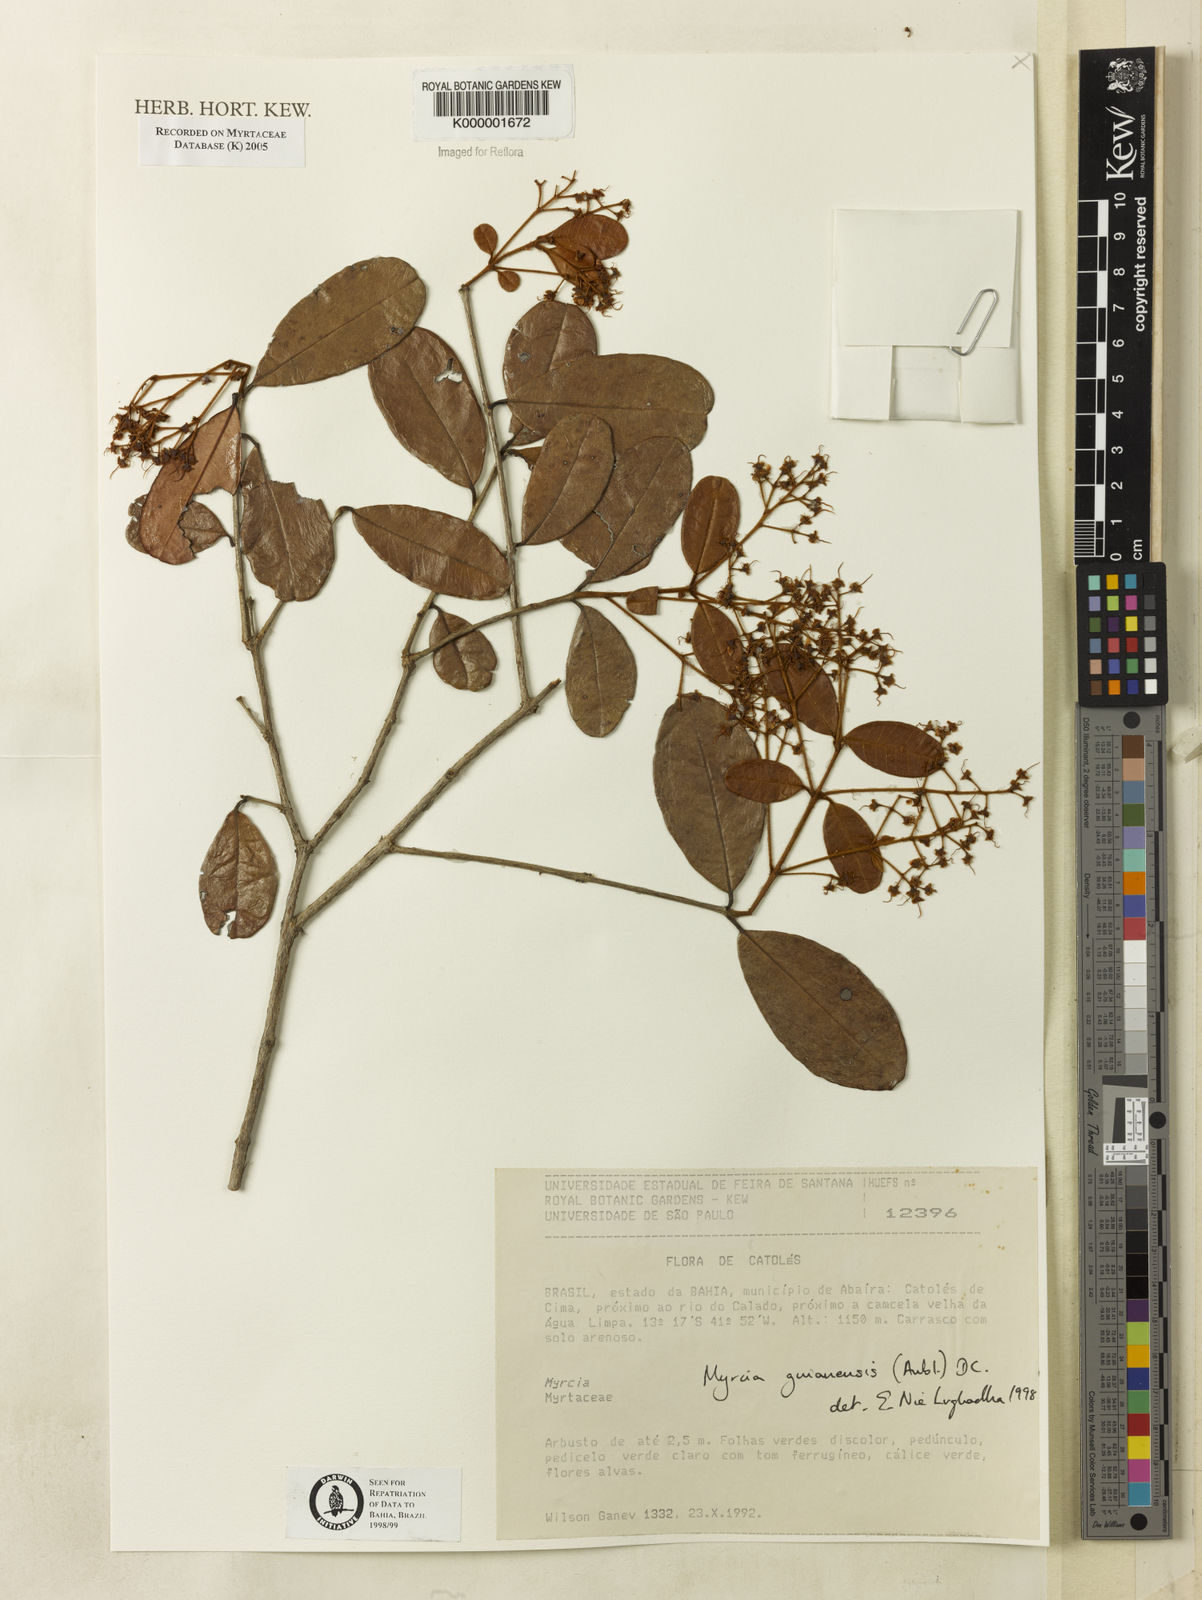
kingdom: Plantae
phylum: Tracheophyta
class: Magnoliopsida
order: Myrtales
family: Myrtaceae
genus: Myrcia
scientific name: Myrcia guianensis
